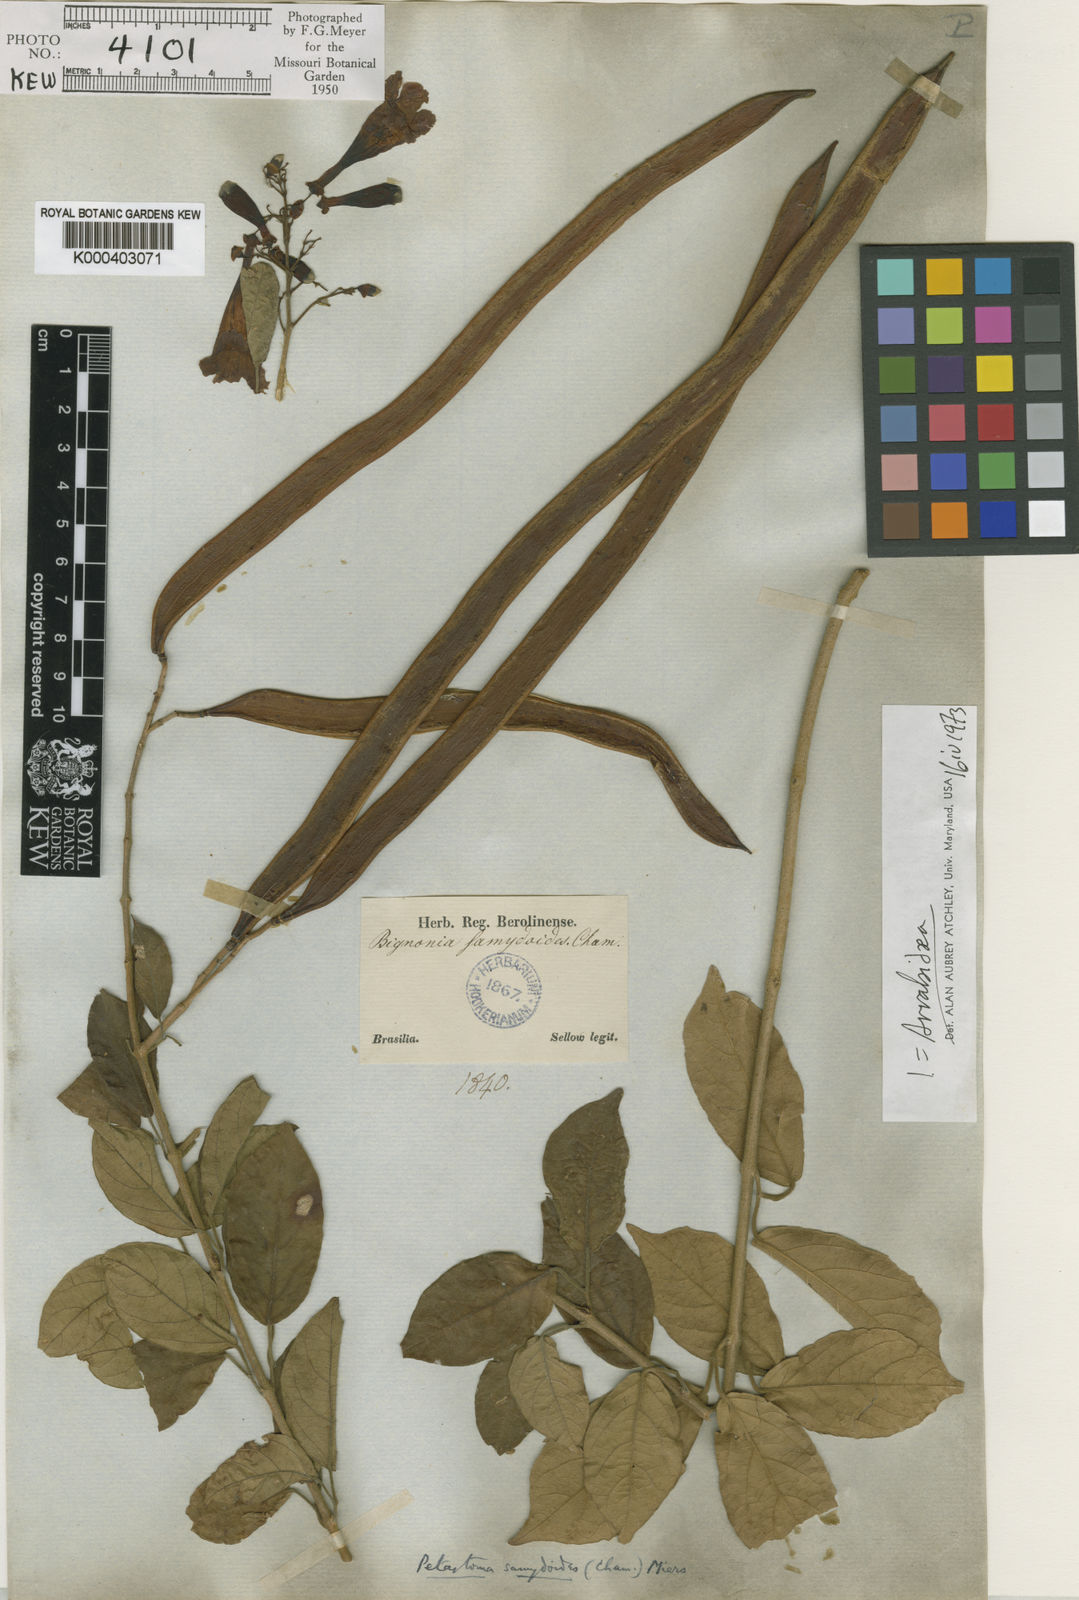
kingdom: Plantae
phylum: Tracheophyta
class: Magnoliopsida
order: Lamiales
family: Bignoniaceae
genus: Fridericia
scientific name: Fridericia samydoides
